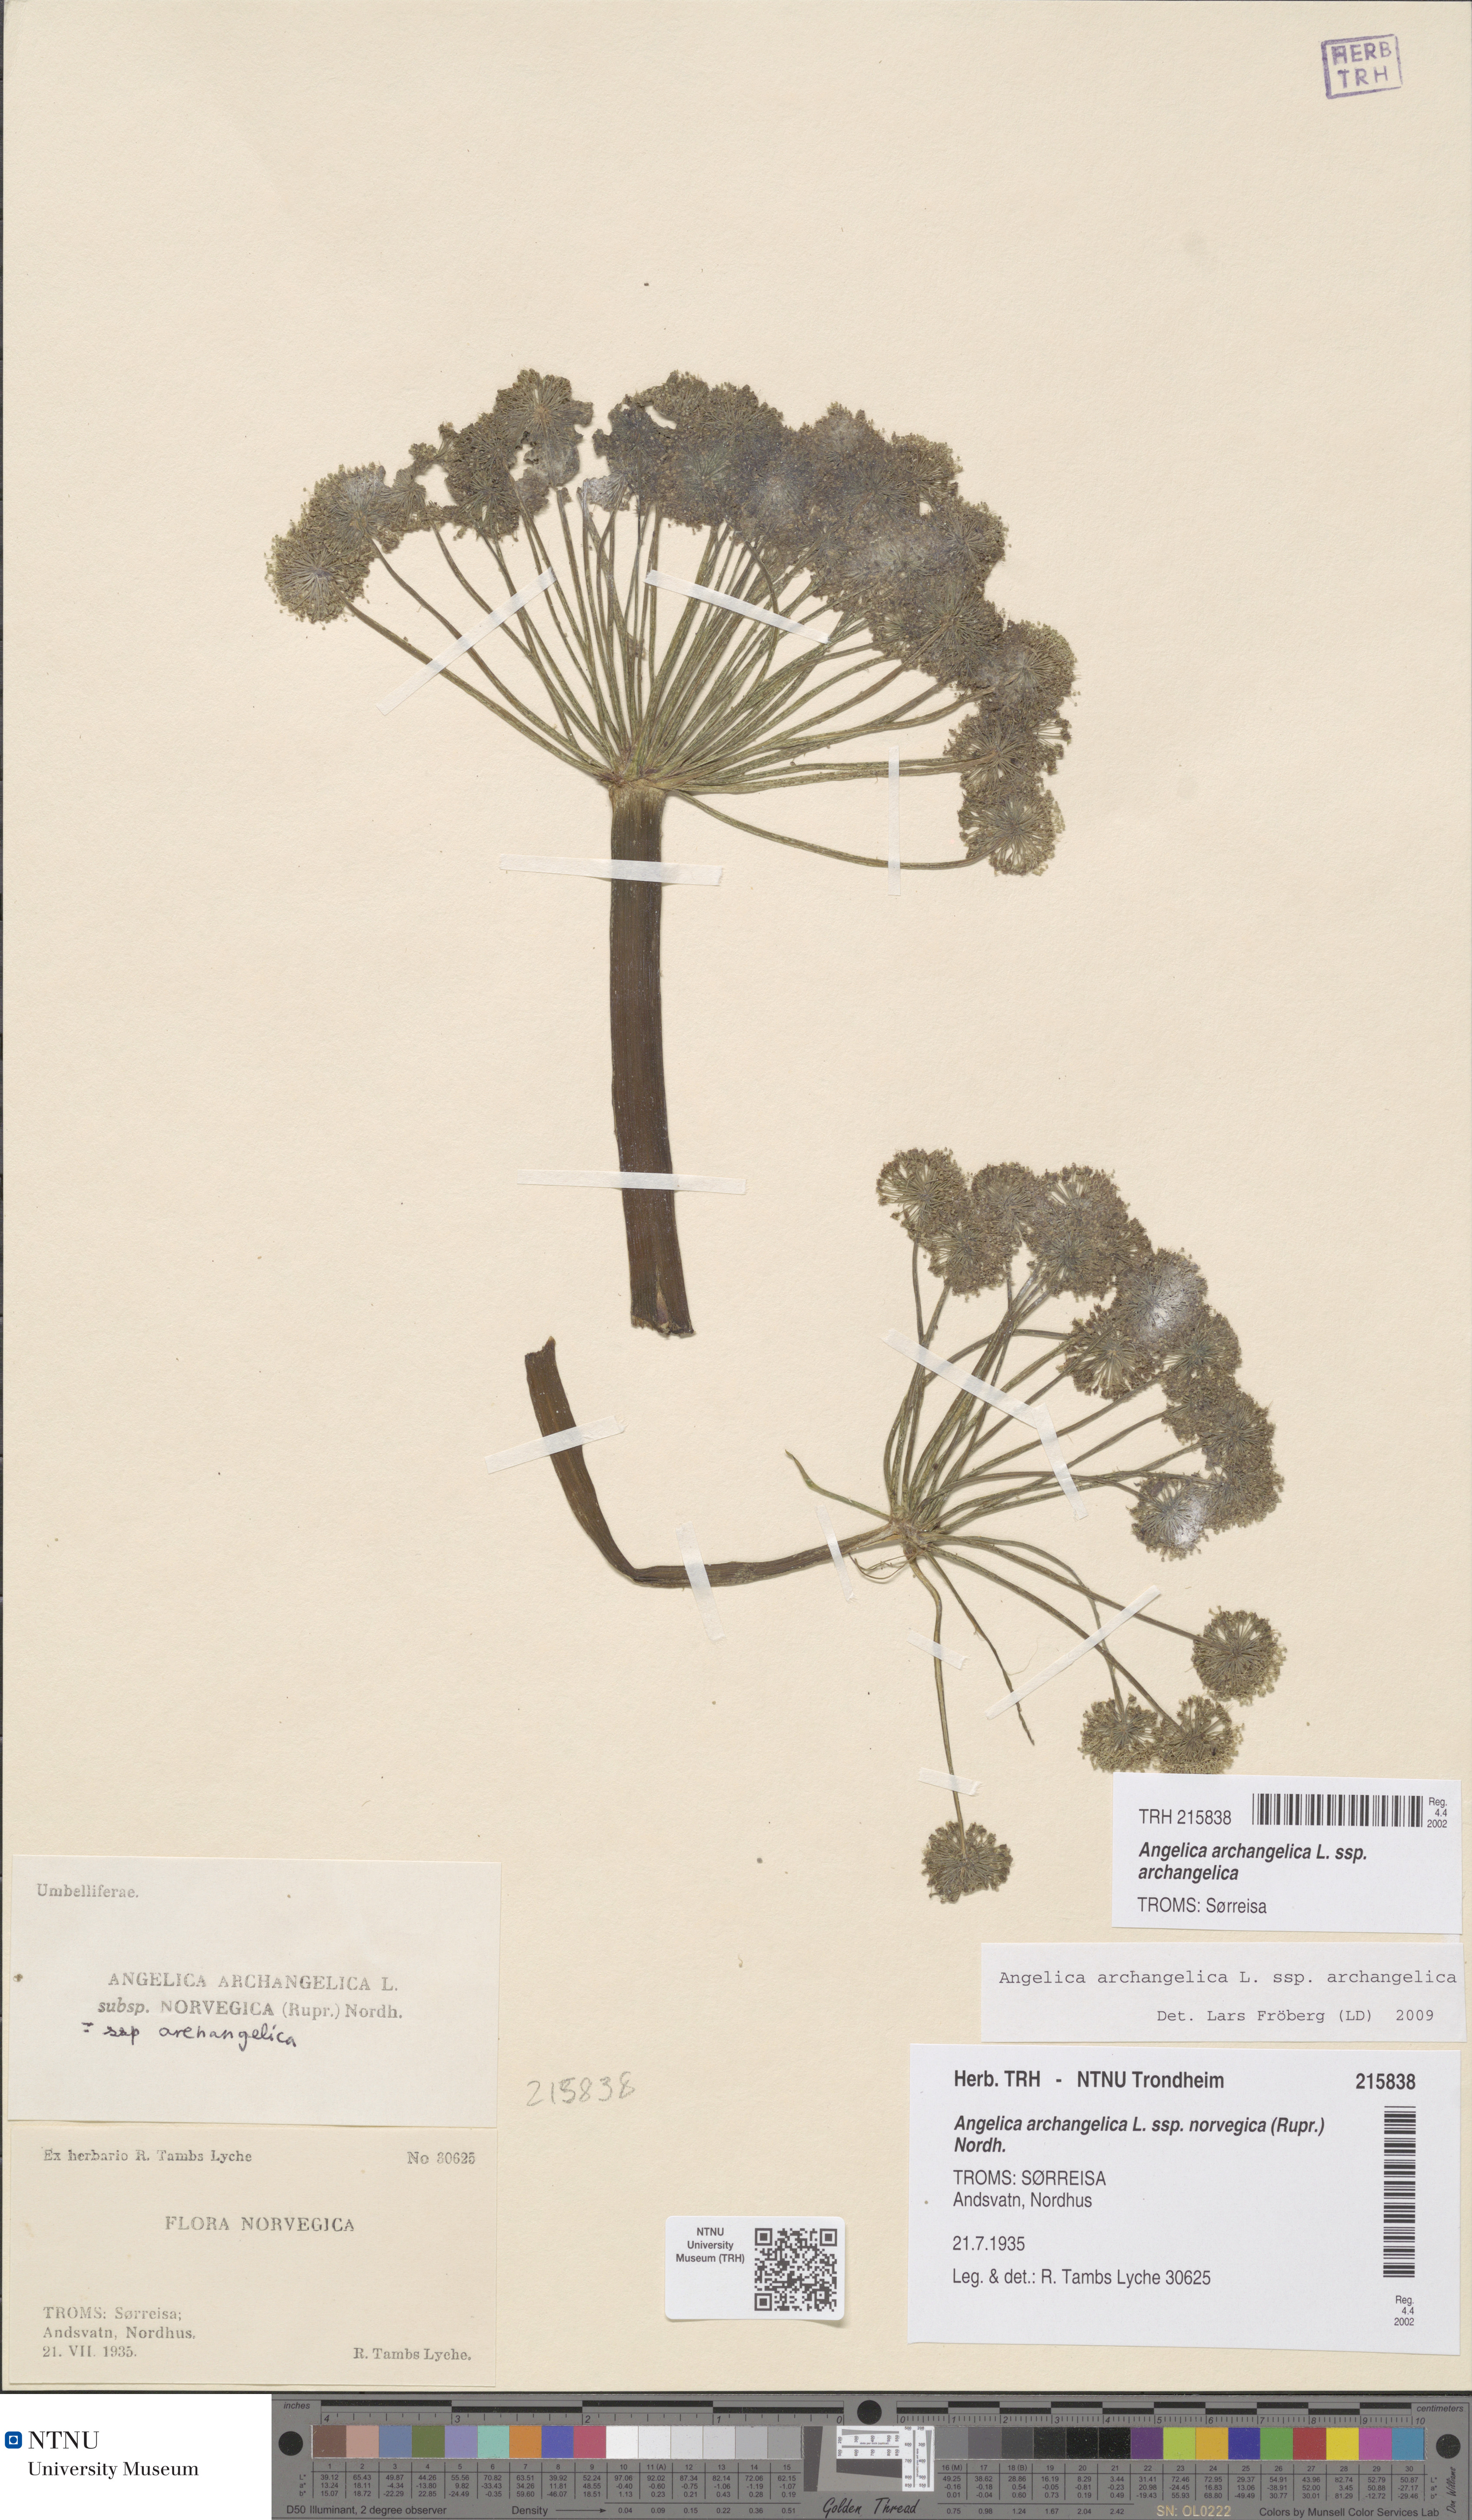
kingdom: Plantae
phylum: Tracheophyta
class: Magnoliopsida
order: Apiales
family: Apiaceae
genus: Angelica
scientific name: Angelica archangelica
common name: Garden angelica
